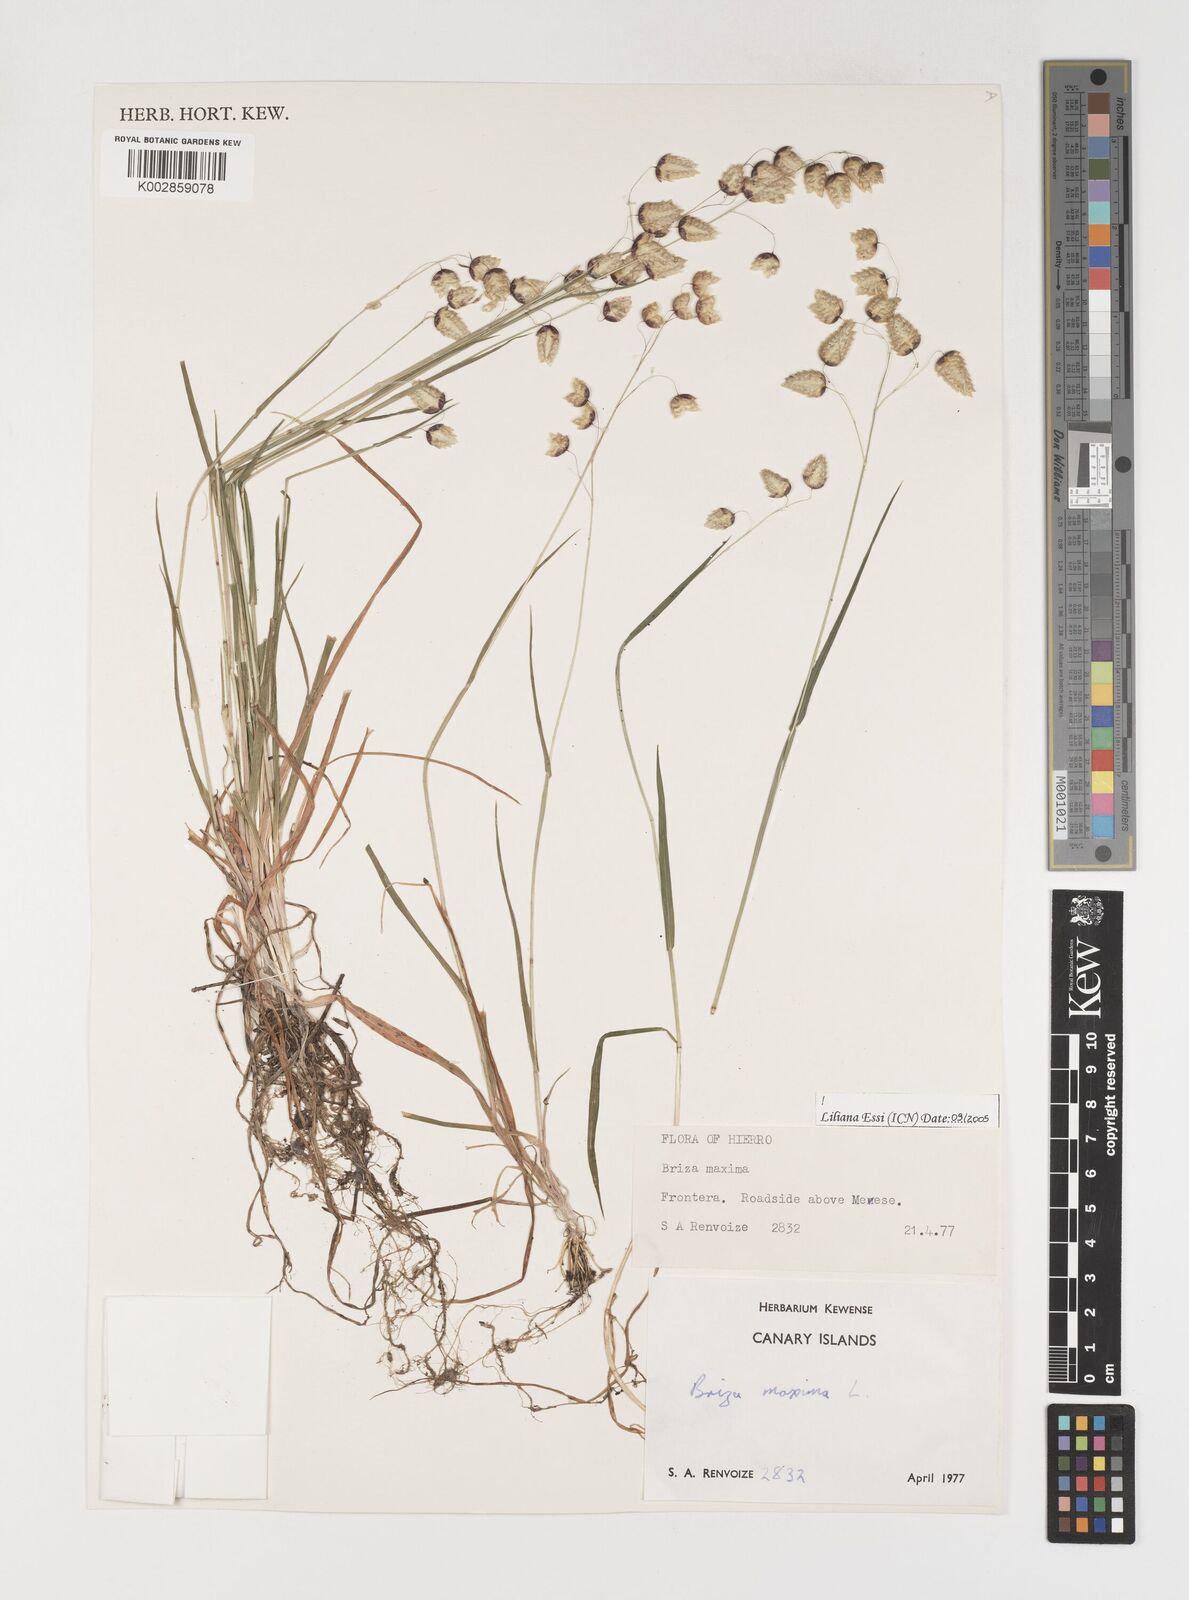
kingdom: Plantae
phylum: Tracheophyta
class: Liliopsida
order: Poales
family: Poaceae
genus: Briza
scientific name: Briza maxima
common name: Big quakinggrass
